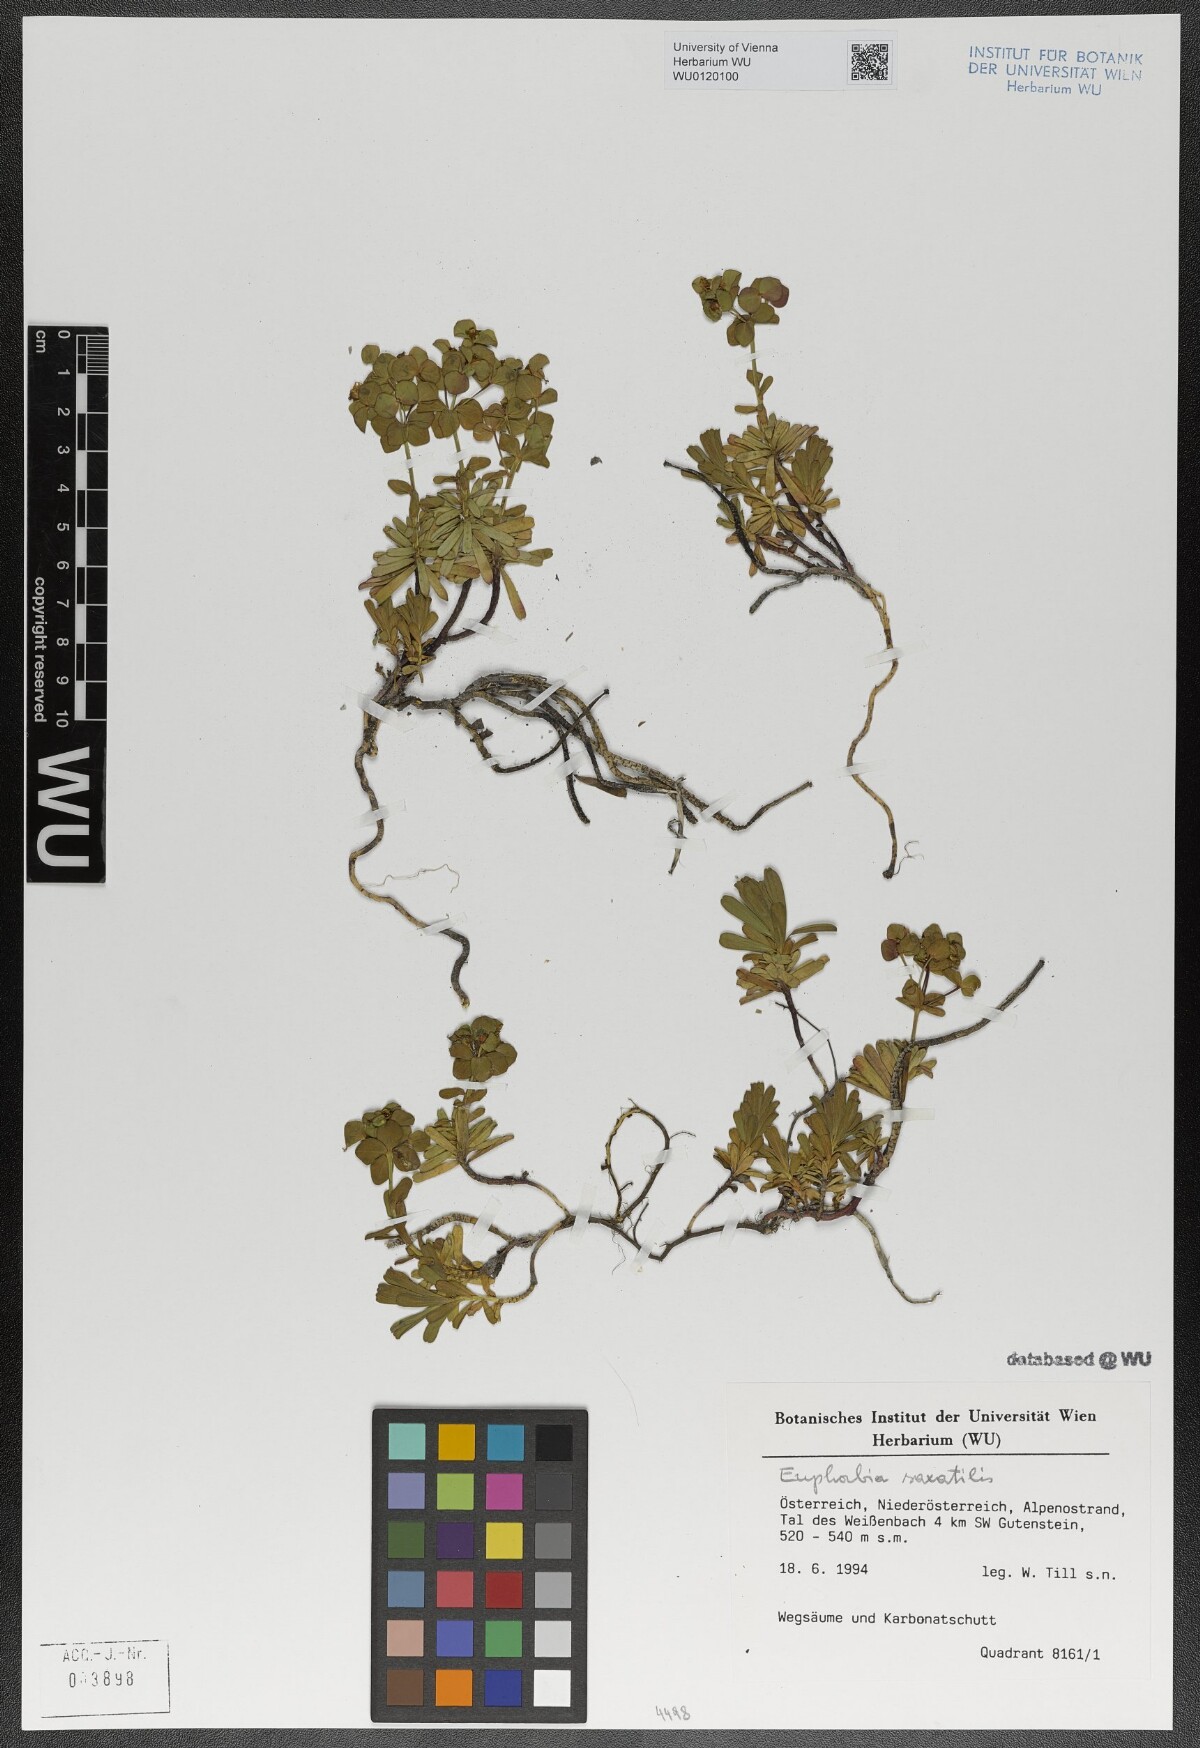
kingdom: Plantae
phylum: Tracheophyta
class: Magnoliopsida
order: Malpighiales
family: Euphorbiaceae
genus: Euphorbia
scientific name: Euphorbia saxatilis
